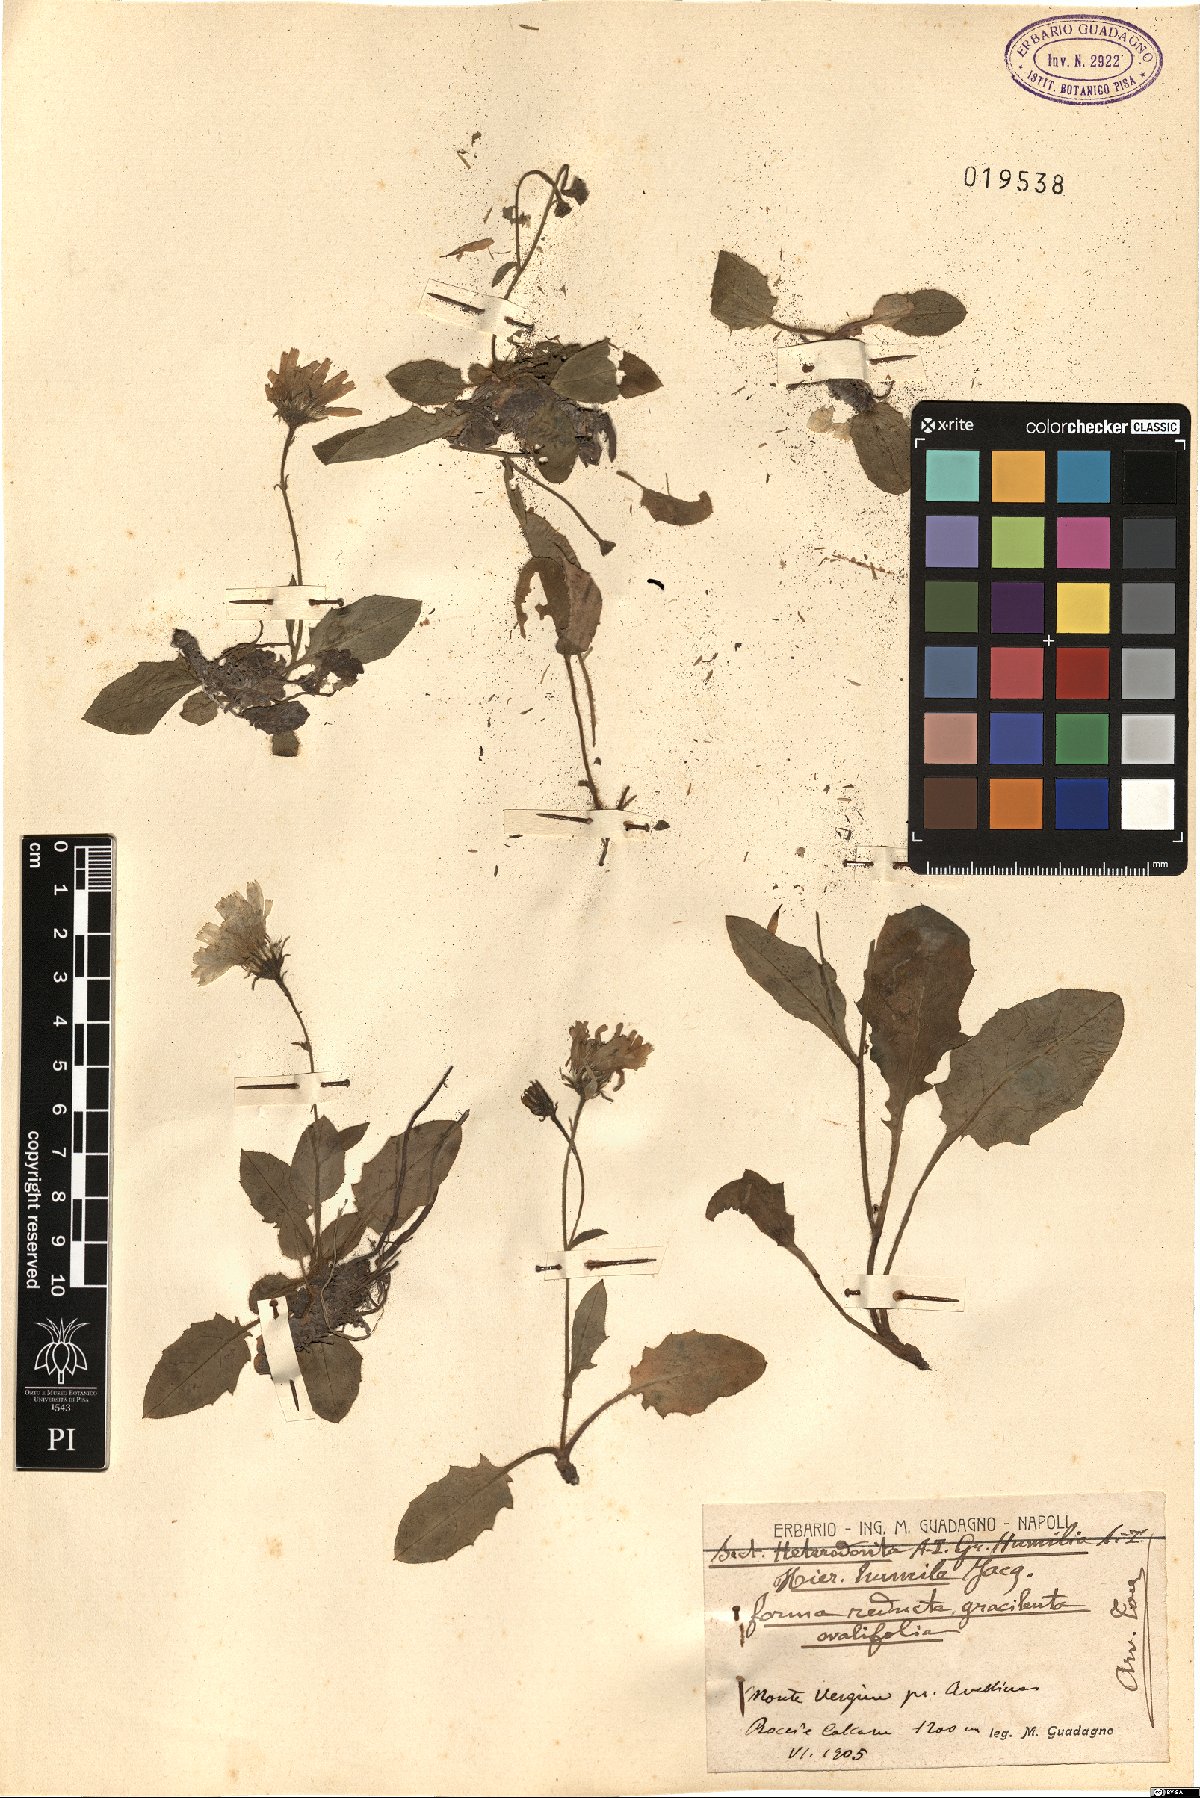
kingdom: Plantae
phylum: Tracheophyta
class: Magnoliopsida
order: Asterales
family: Asteraceae
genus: Hieracium
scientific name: Hieracium humile
